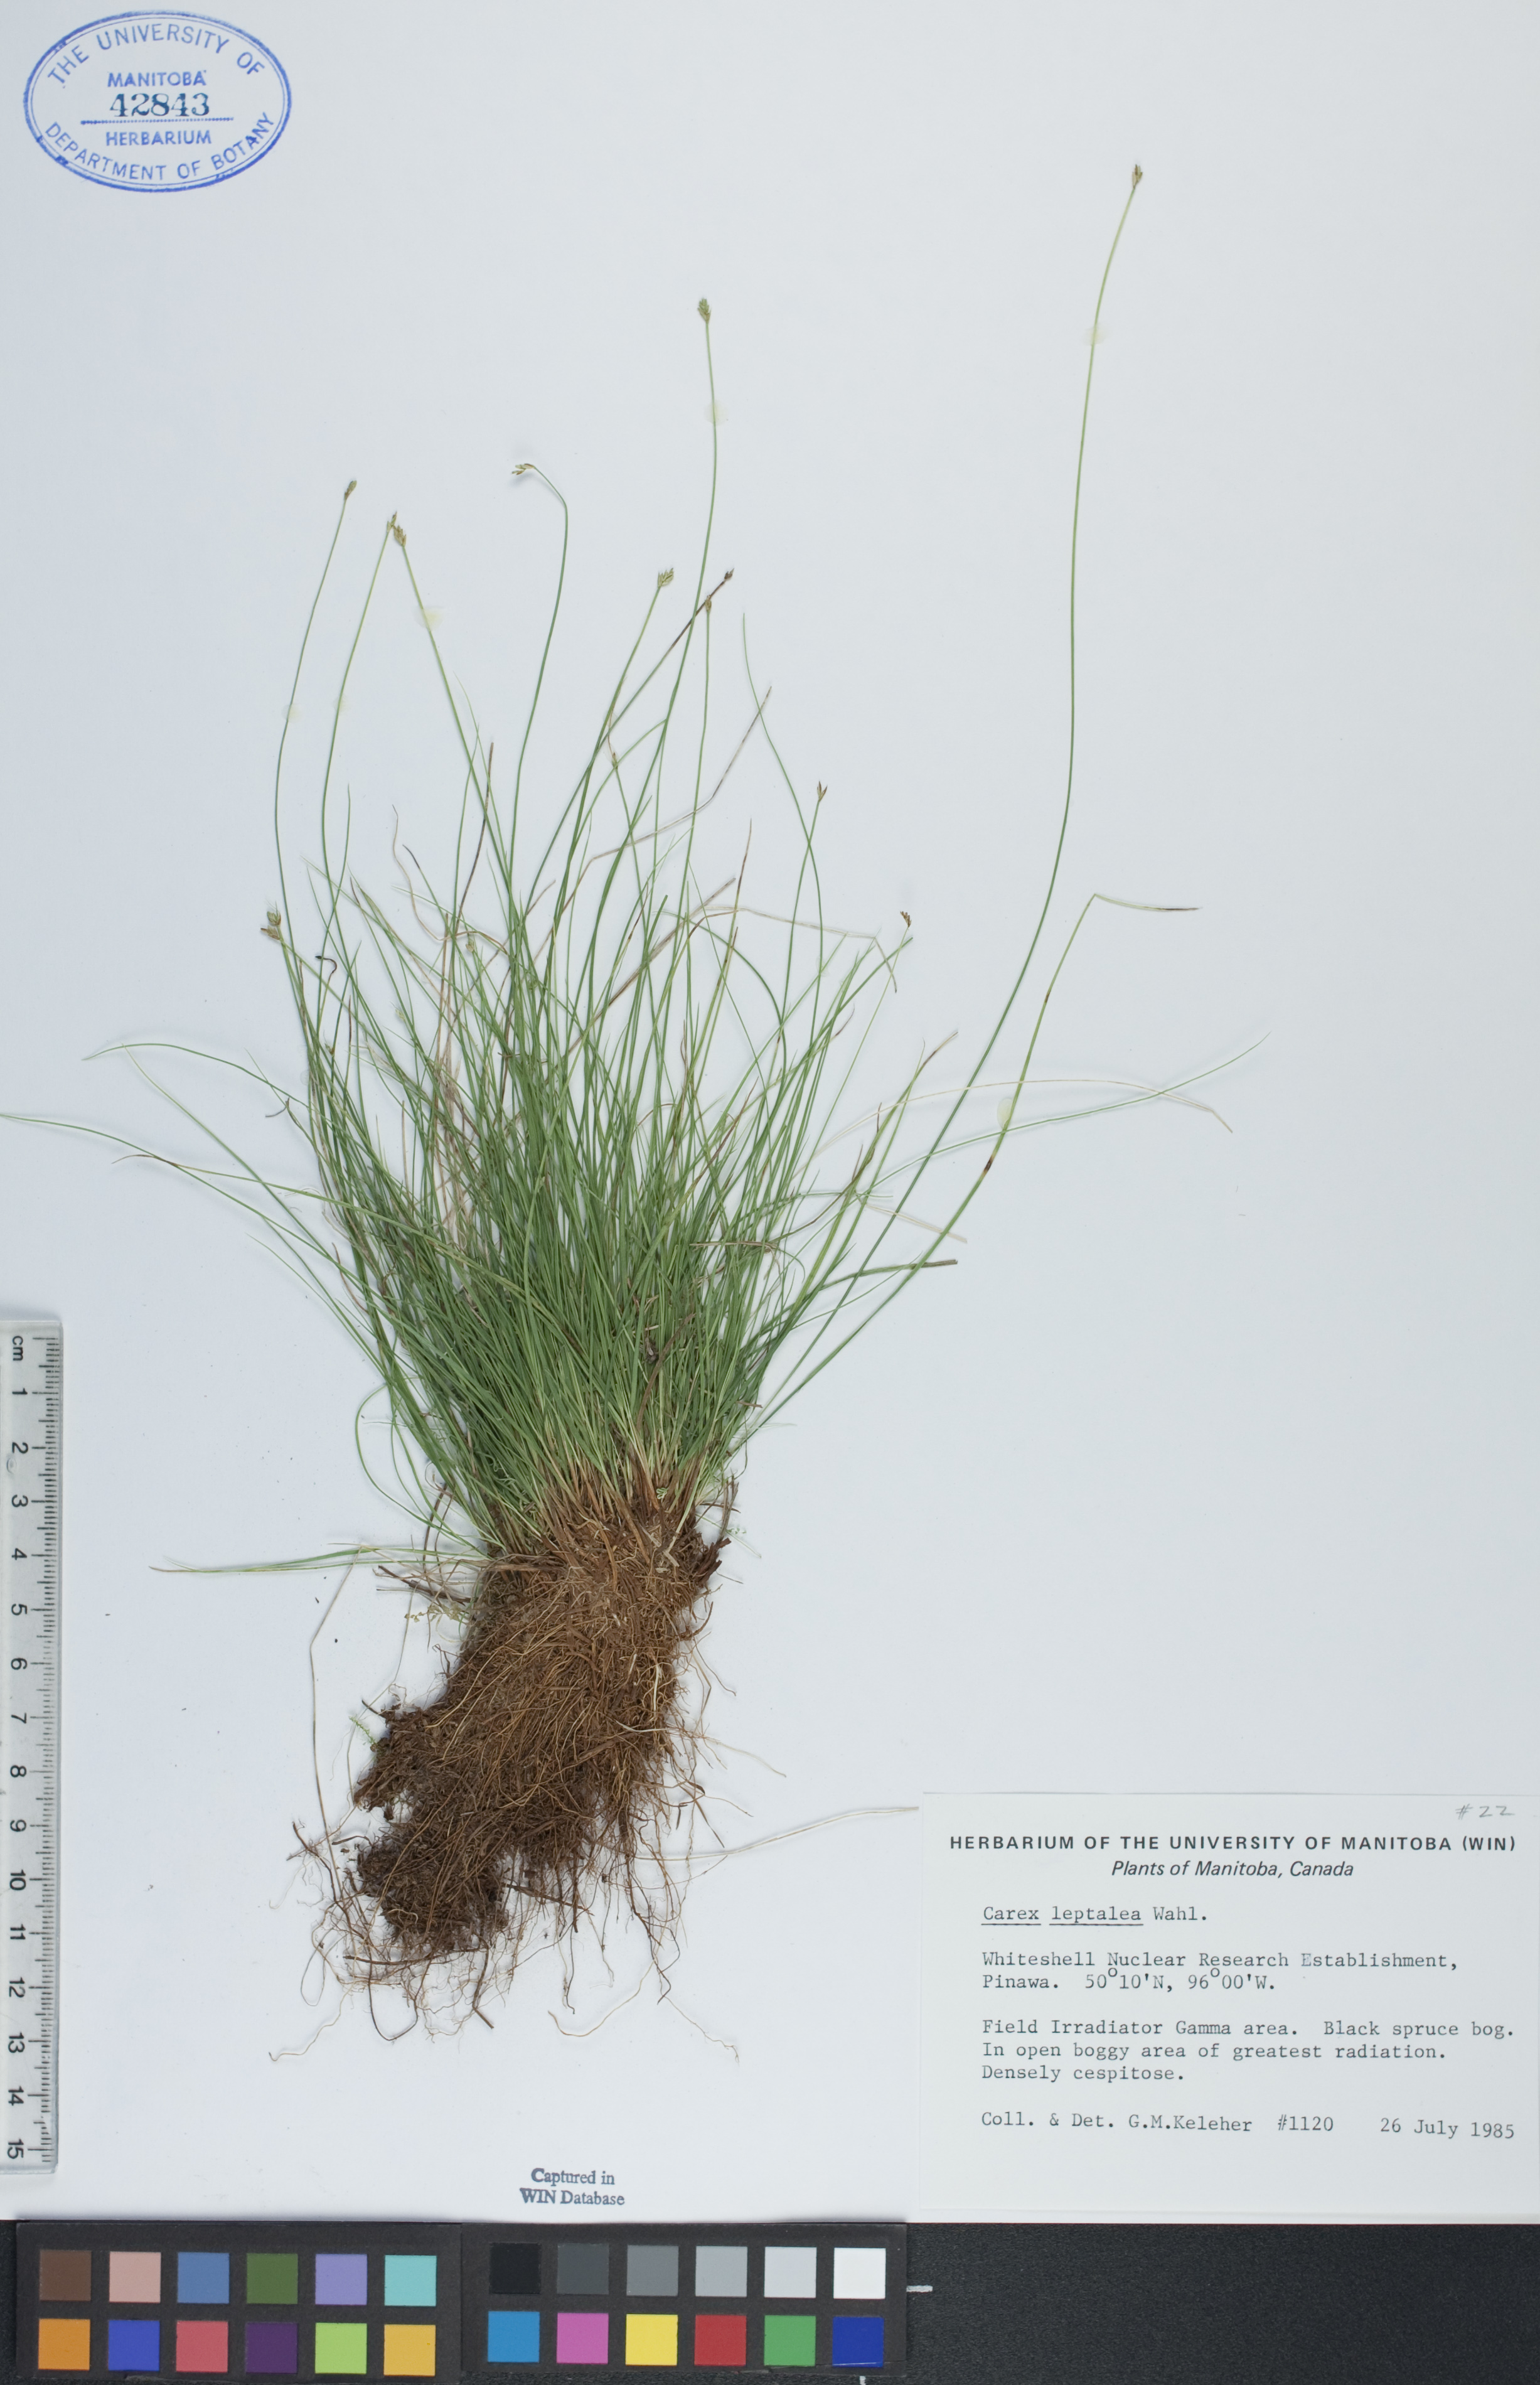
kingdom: Plantae
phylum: Tracheophyta
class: Liliopsida
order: Poales
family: Cyperaceae
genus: Carex
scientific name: Carex leptalea
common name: Bristly-stalked sedge
